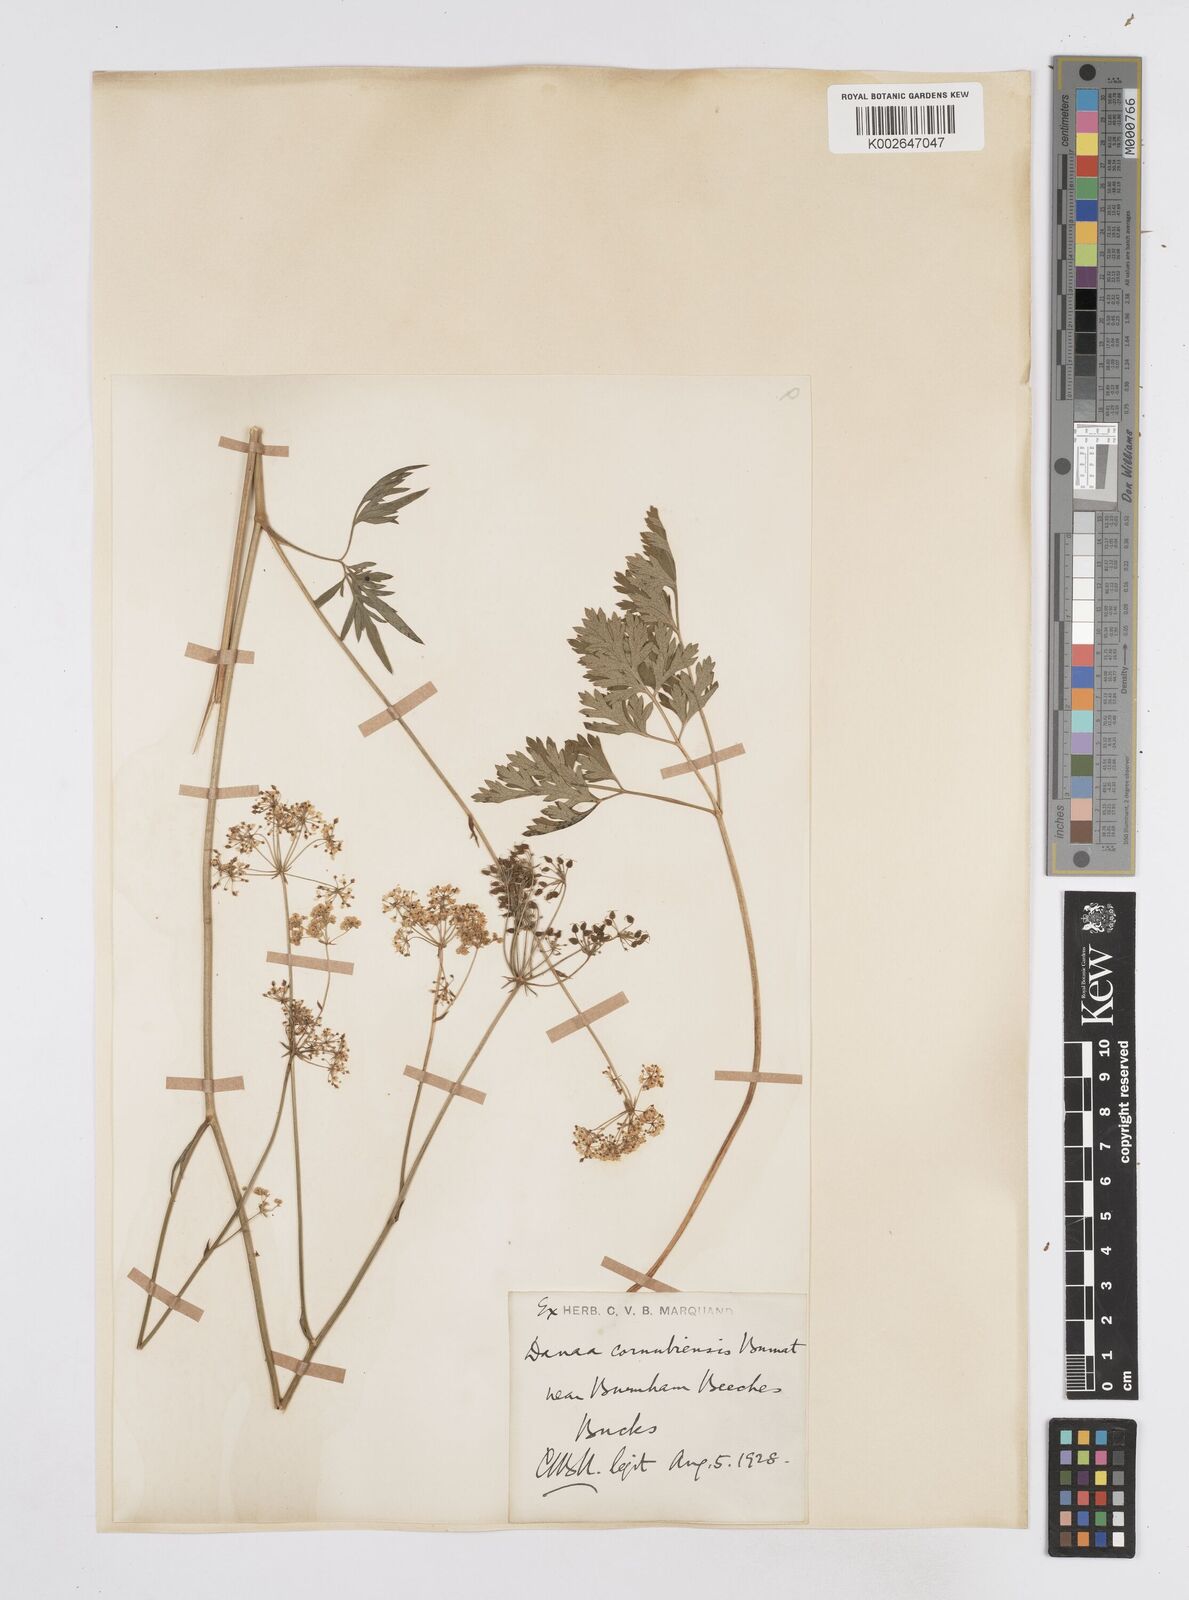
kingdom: Plantae
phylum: Tracheophyta
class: Magnoliopsida
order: Apiales
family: Apiaceae
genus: Physospermum
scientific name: Physospermum cornubiense
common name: Bladderseed
